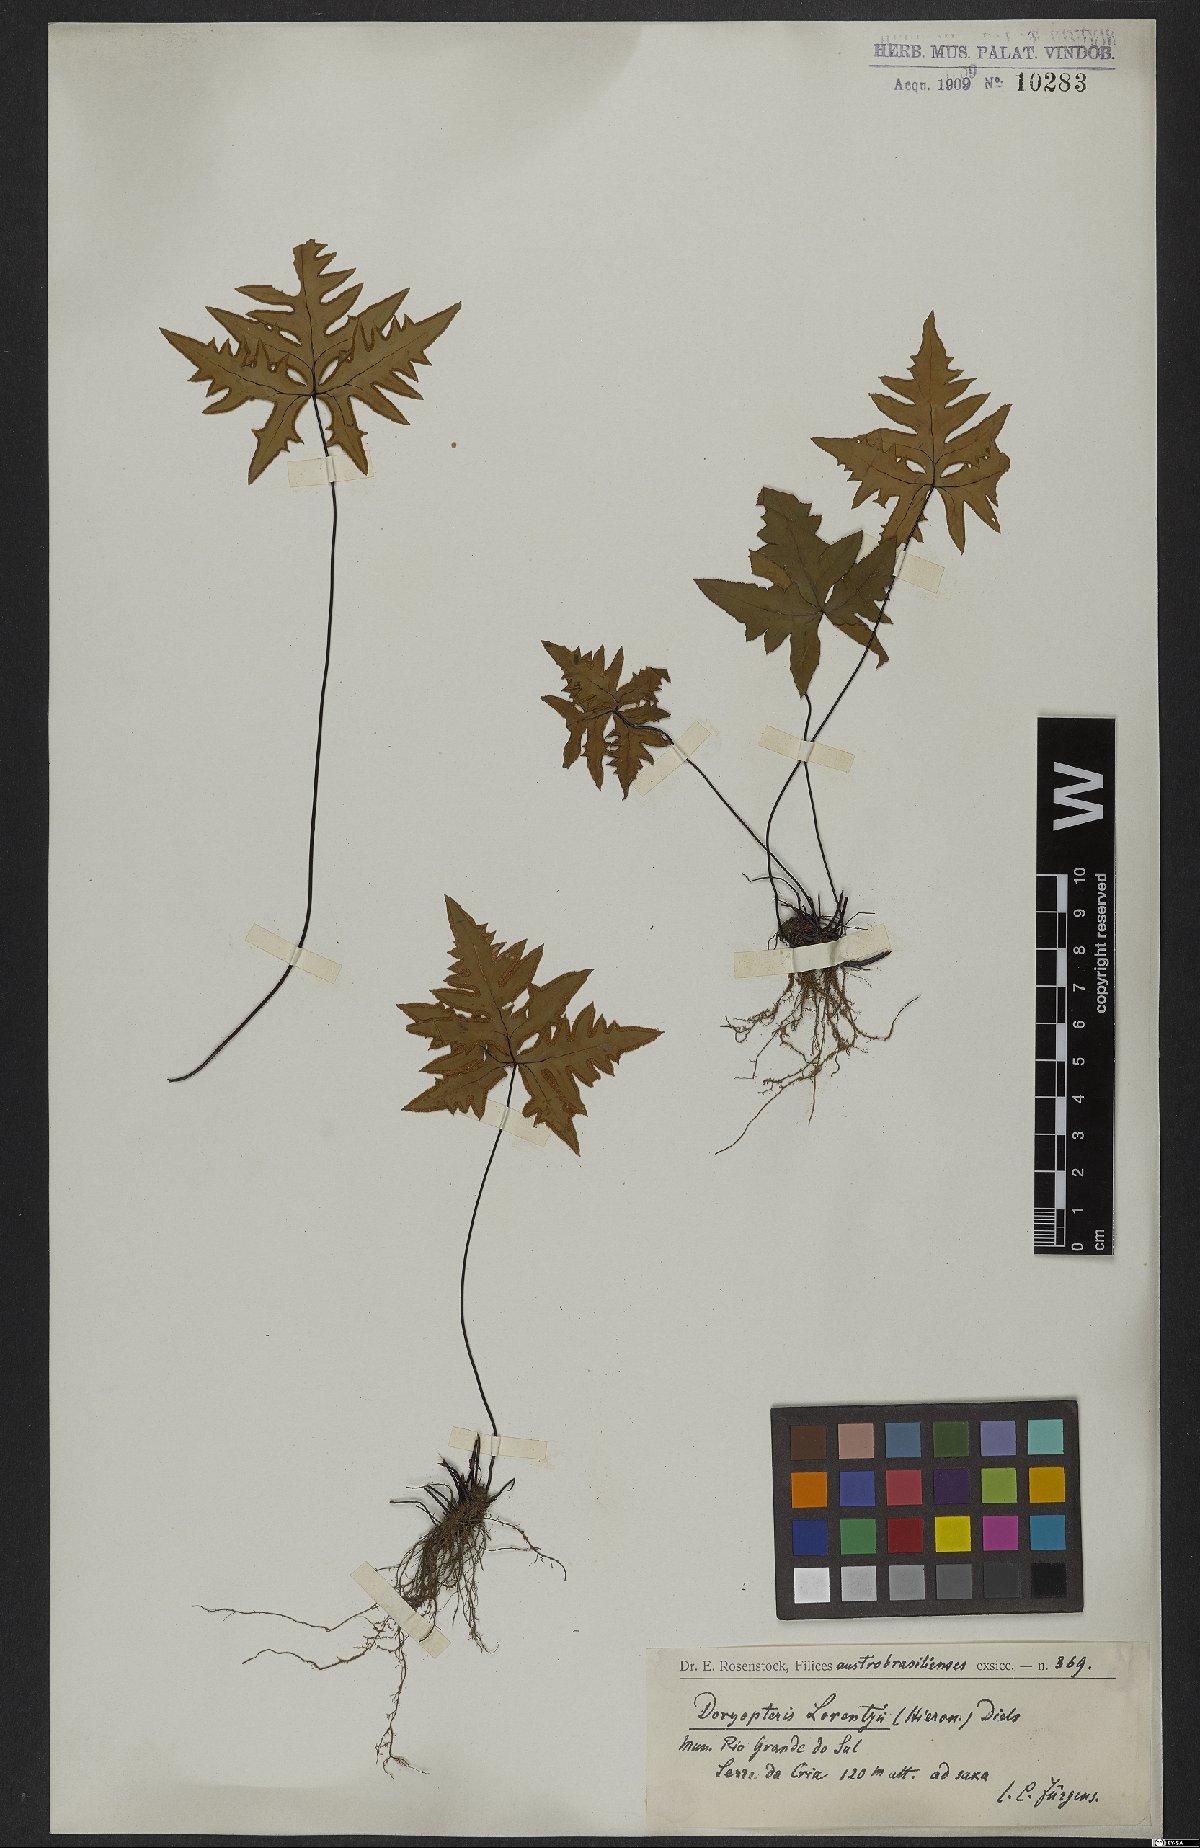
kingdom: Plantae
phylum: Tracheophyta
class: Polypodiopsida
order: Polypodiales
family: Pteridaceae
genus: Doryopteris
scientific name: Doryopteris lorentzii
